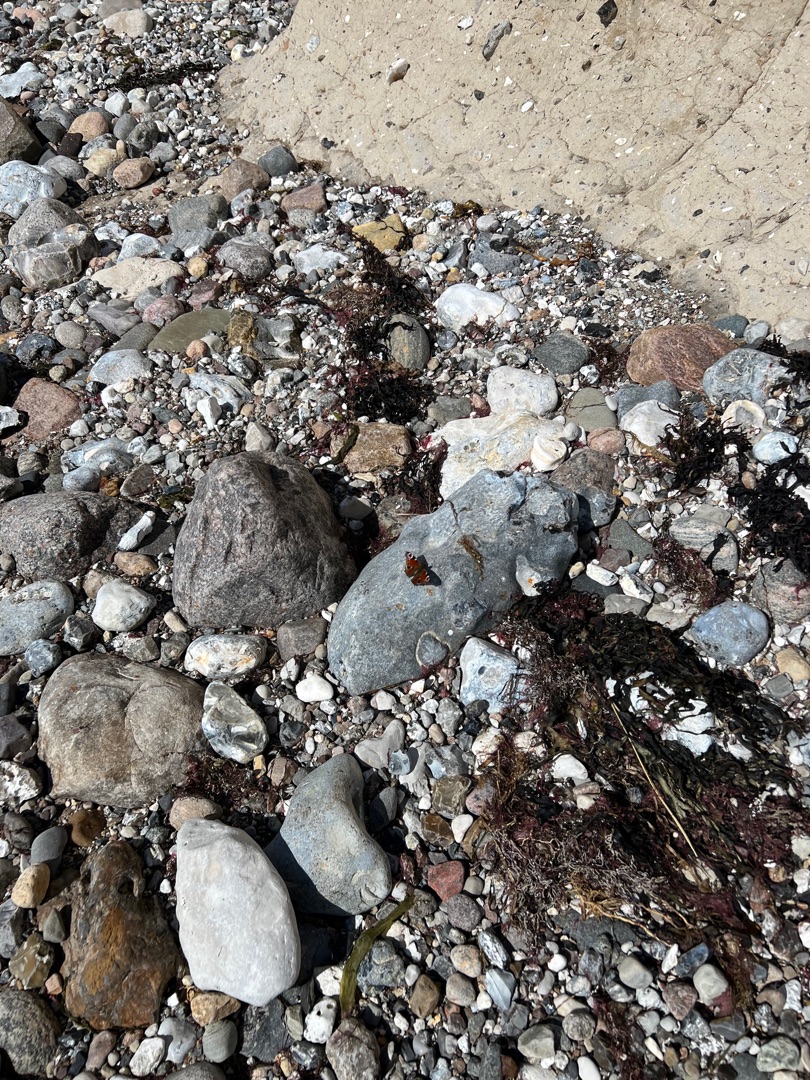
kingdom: Animalia
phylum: Arthropoda
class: Insecta
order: Lepidoptera
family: Nymphalidae
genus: Aglais
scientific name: Aglais io
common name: Dagpåfugleøje
